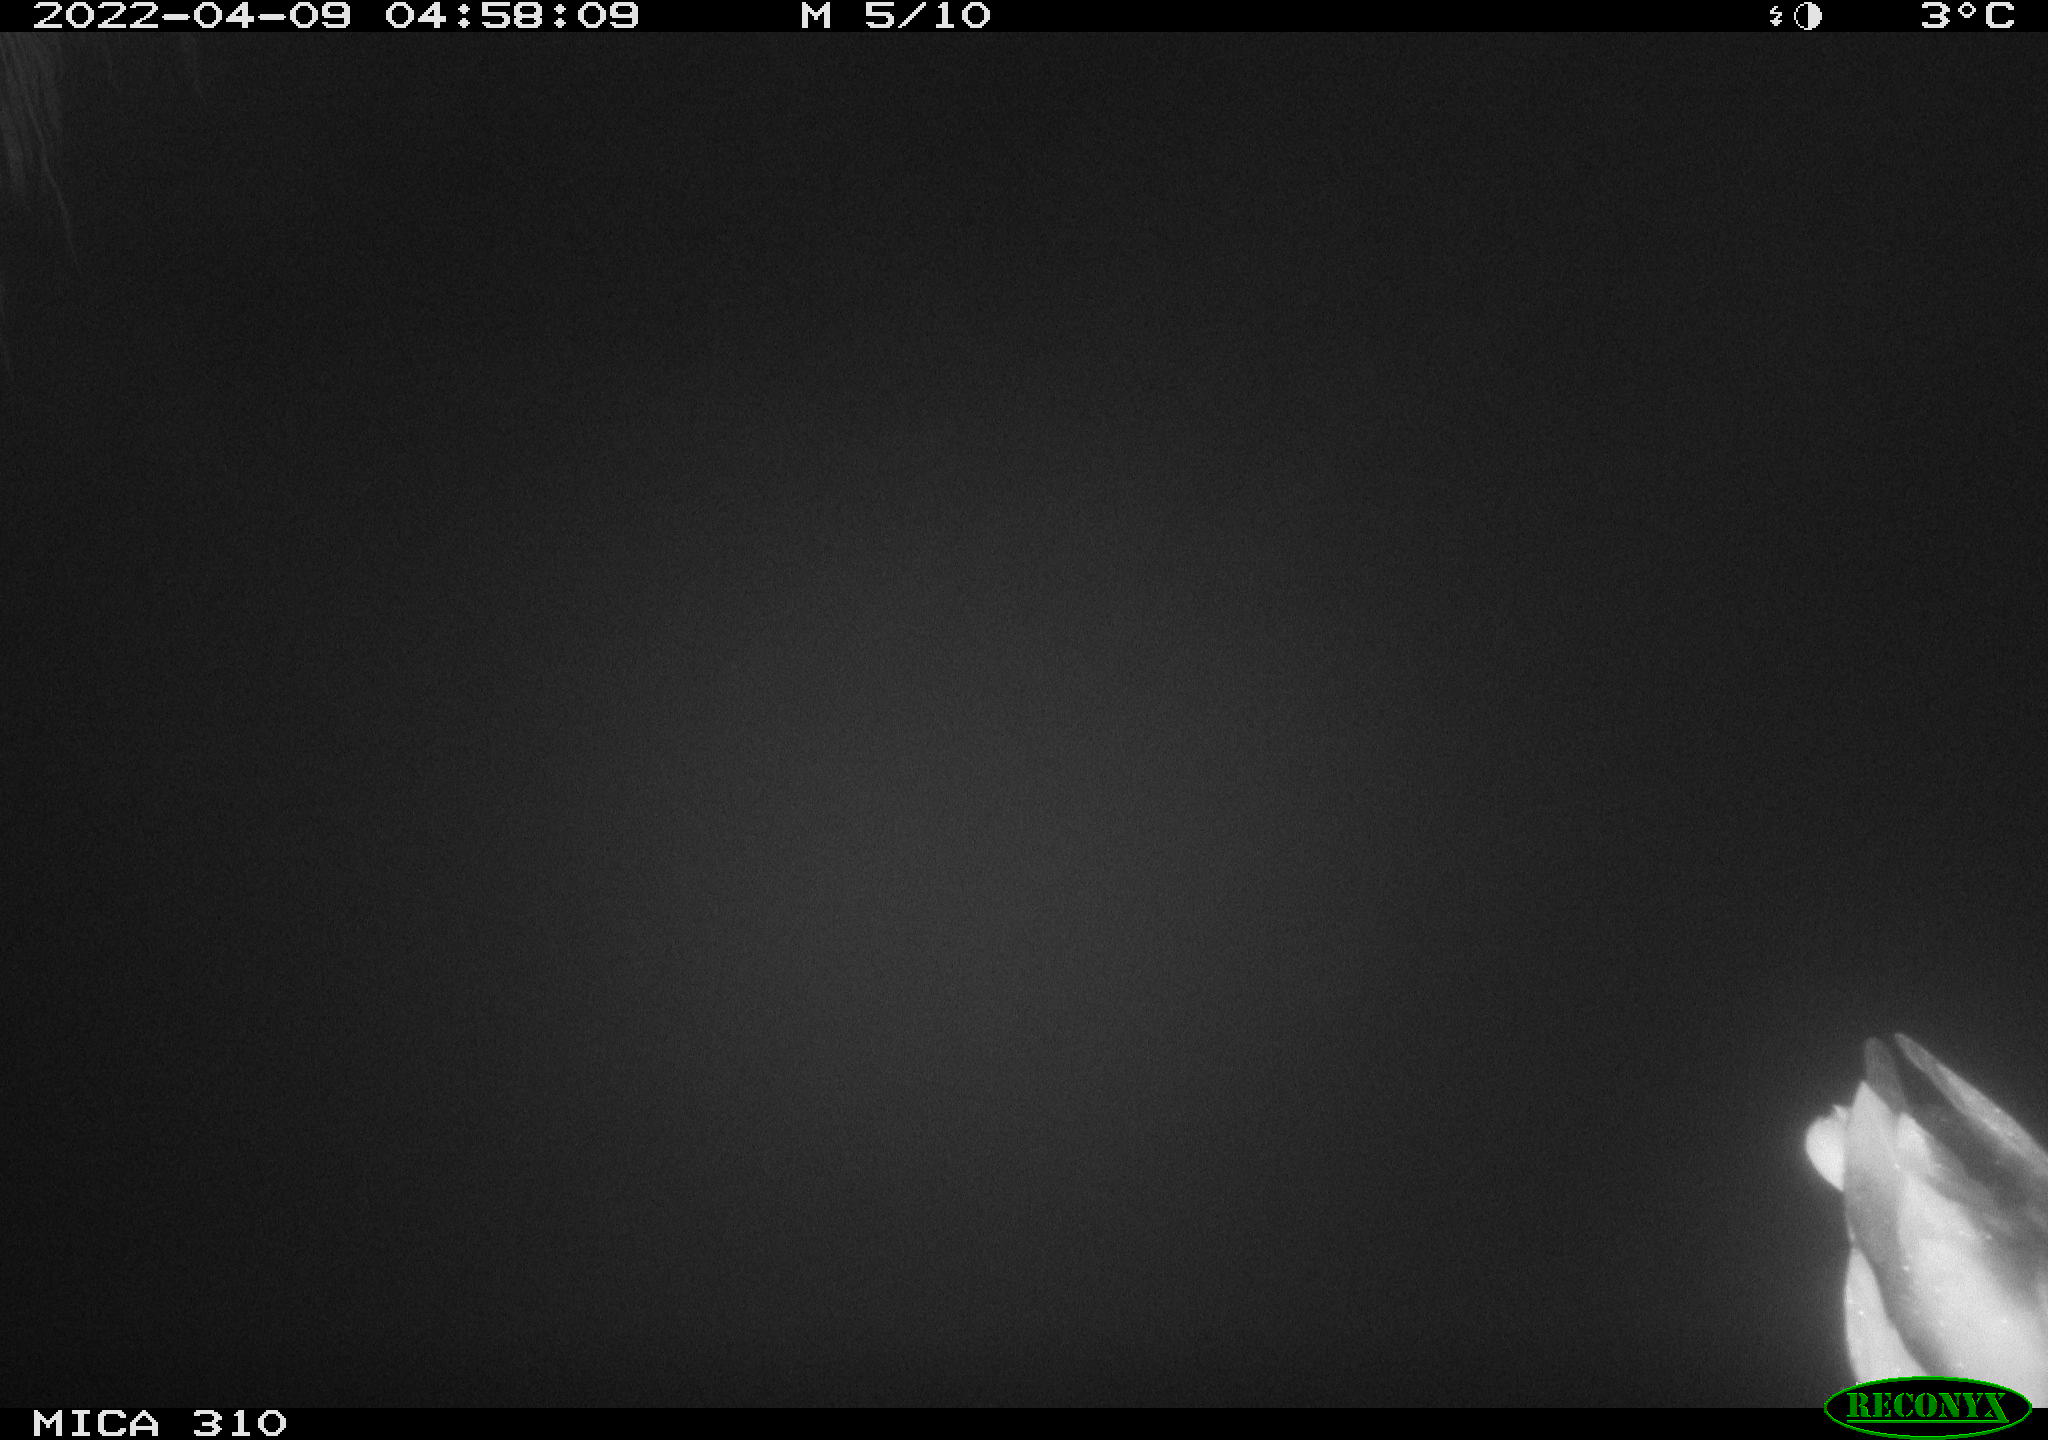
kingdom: Animalia
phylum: Chordata
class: Aves
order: Anseriformes
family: Anatidae
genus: Anas
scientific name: Anas platyrhynchos
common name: Mallard
